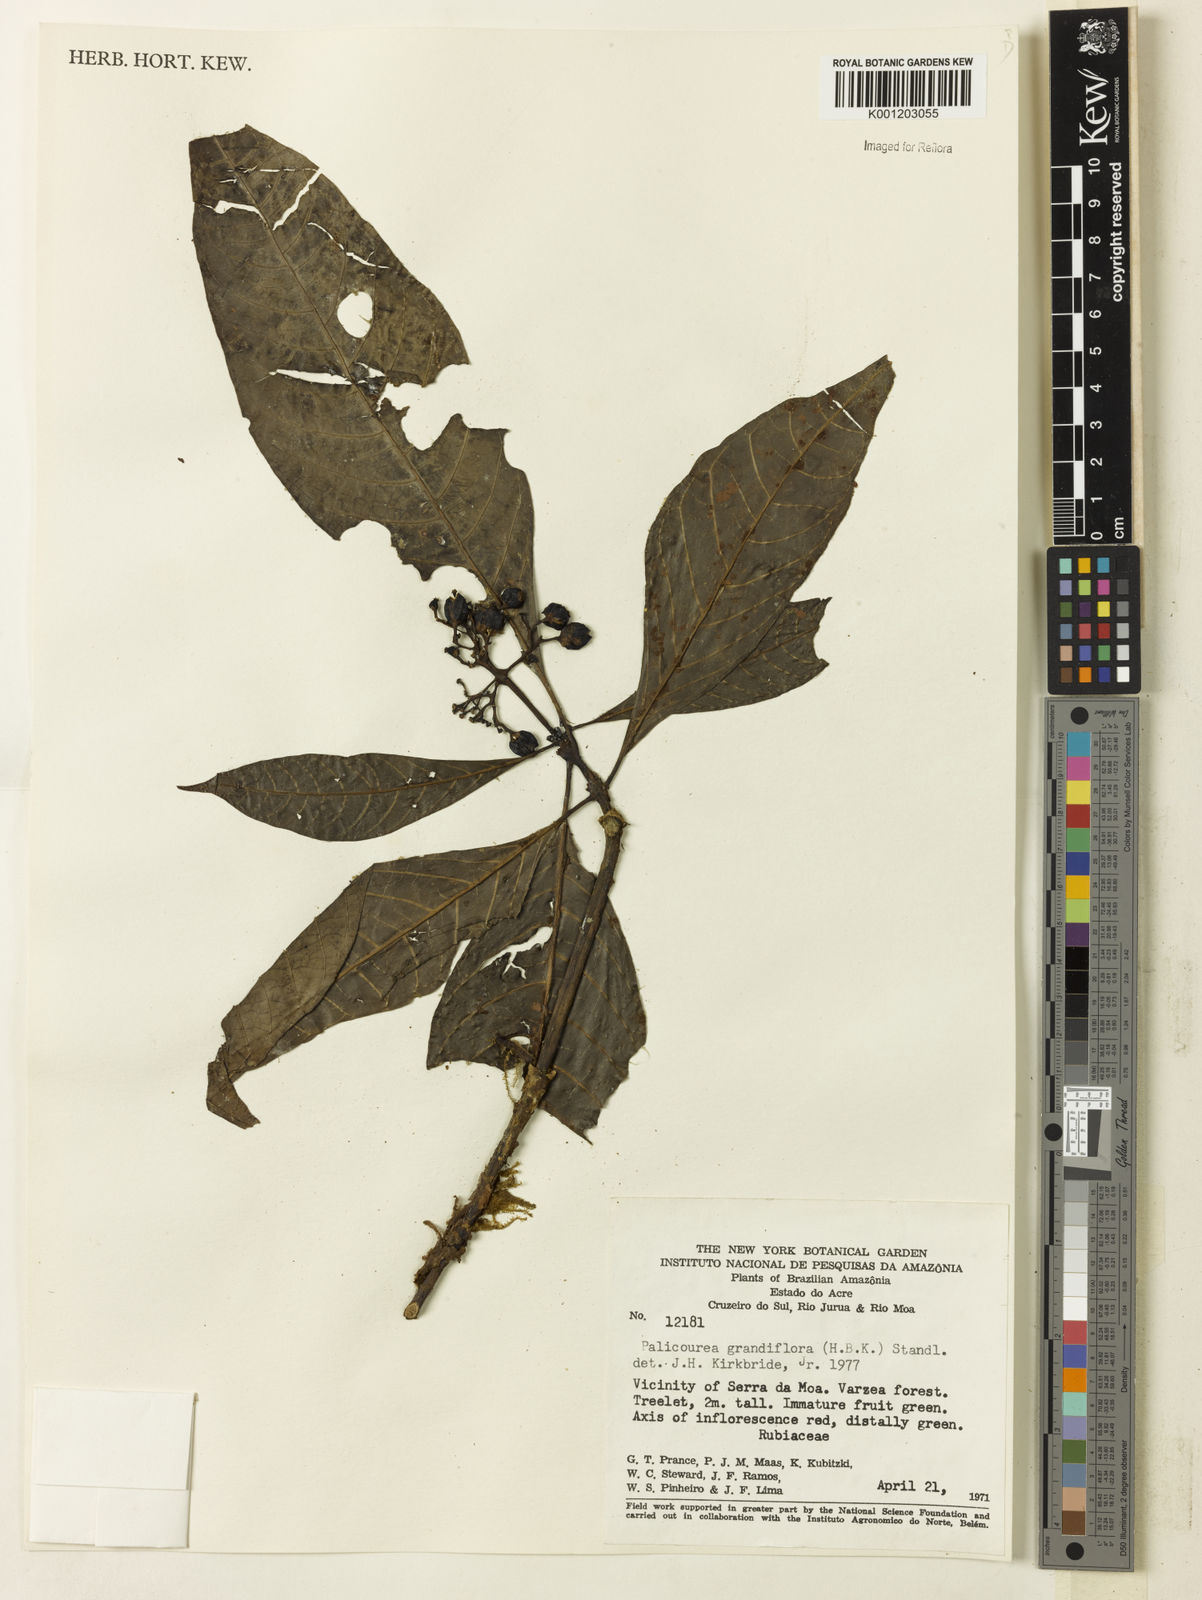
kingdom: Plantae
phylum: Tracheophyta
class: Magnoliopsida
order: Gentianales
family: Rubiaceae
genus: Palicourea
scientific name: Palicourea grandiflora
